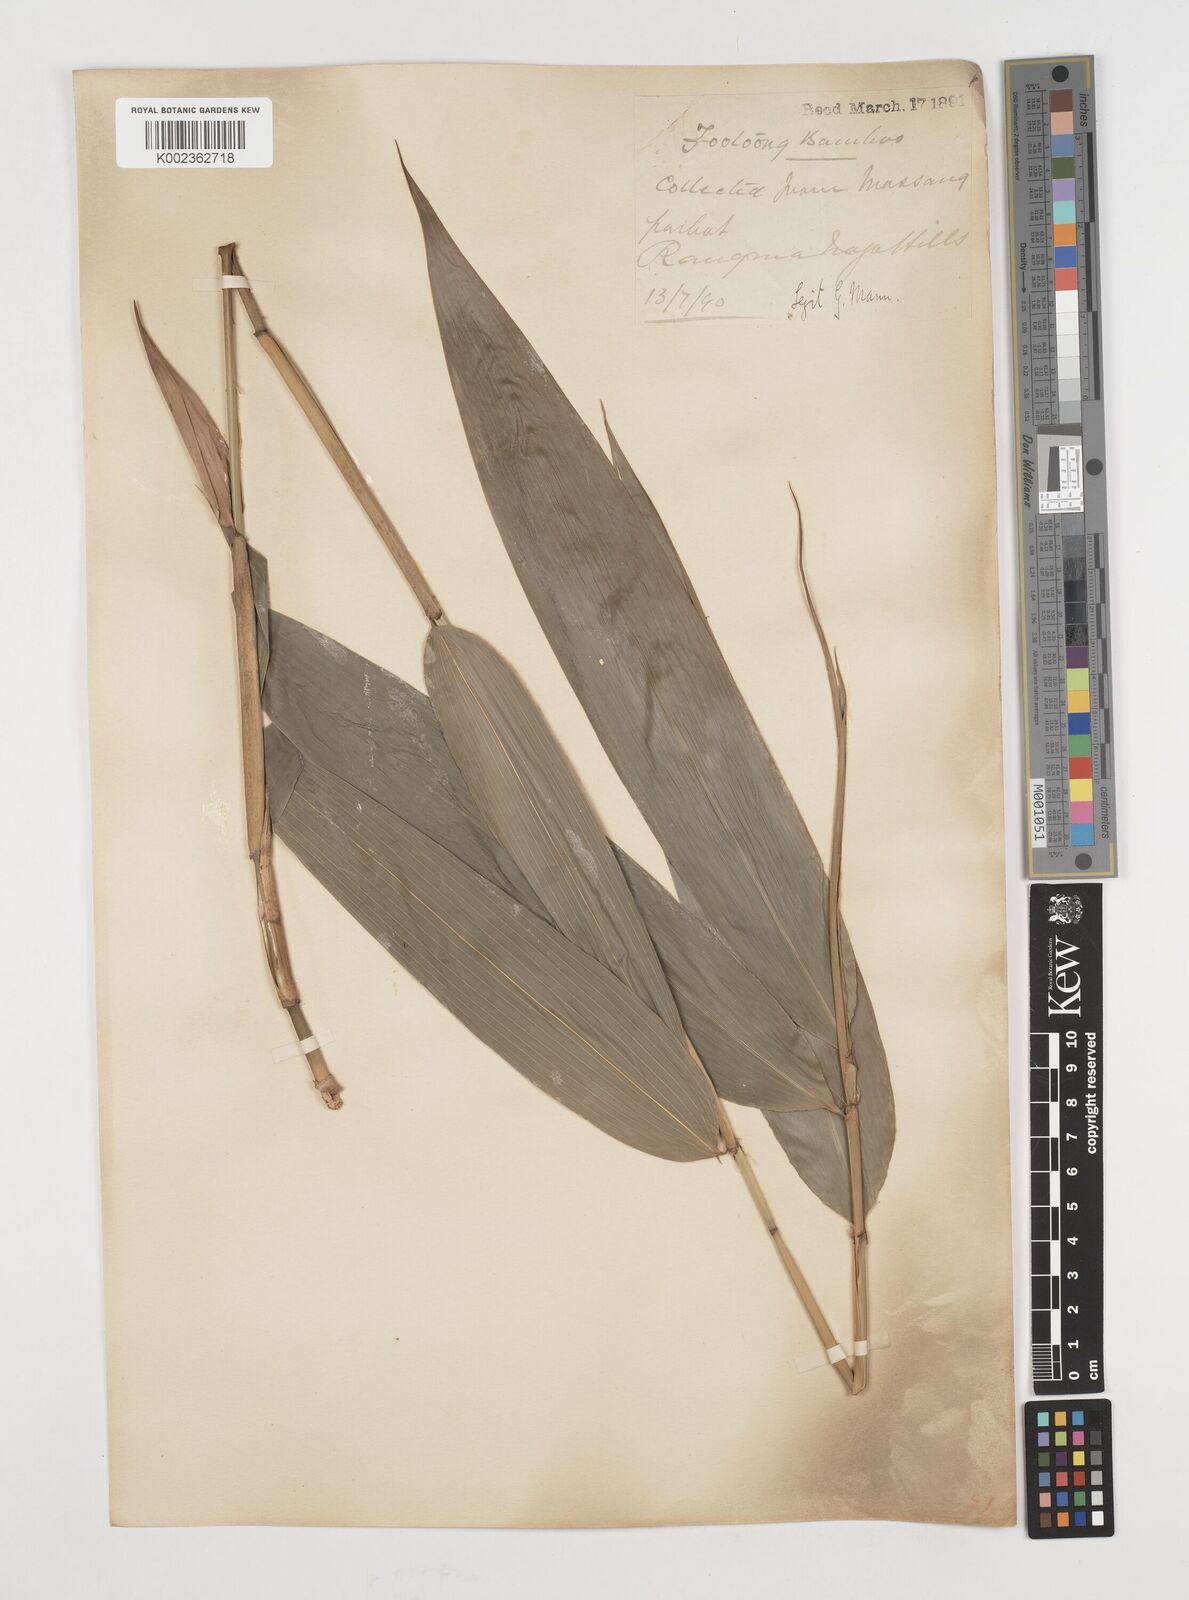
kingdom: Plantae
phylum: Tracheophyta
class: Liliopsida
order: Poales
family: Poaceae
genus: Ampelocalamus
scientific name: Ampelocalamus patellaris
